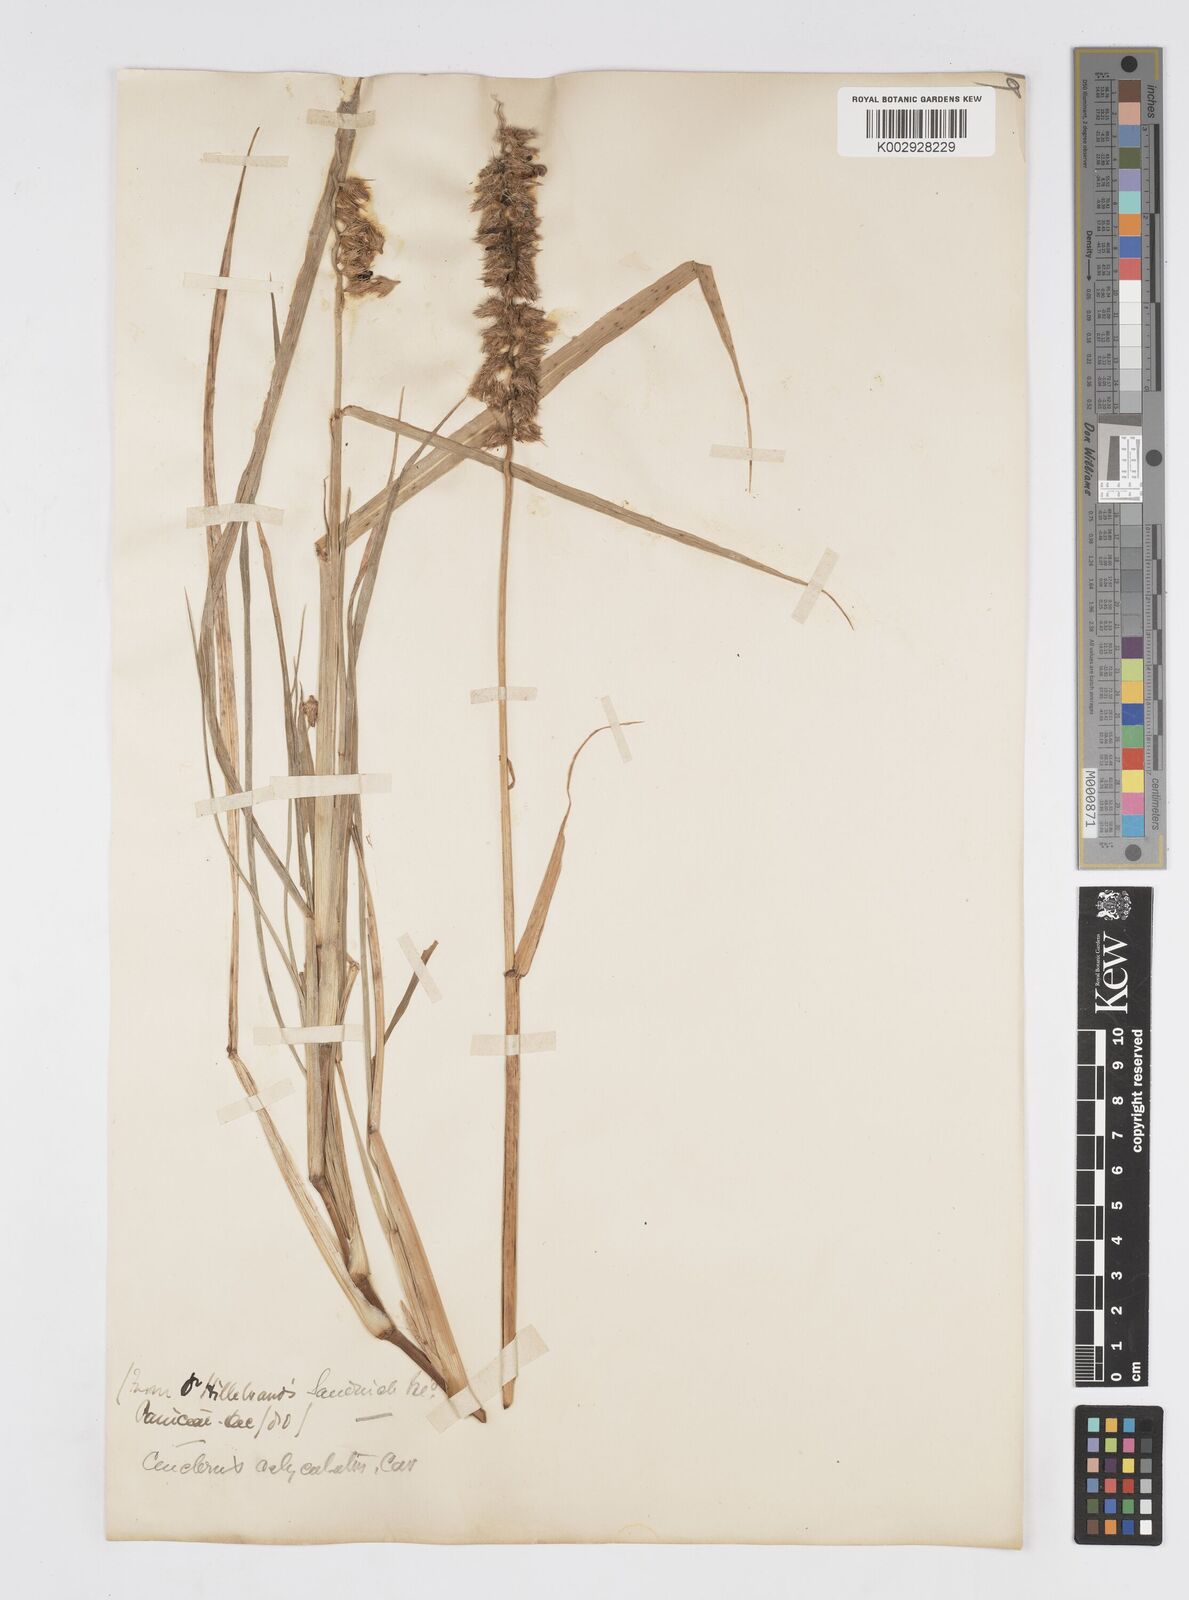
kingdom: Plantae
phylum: Tracheophyta
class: Liliopsida
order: Poales
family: Poaceae
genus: Cenchrus
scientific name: Cenchrus agrimonioides
